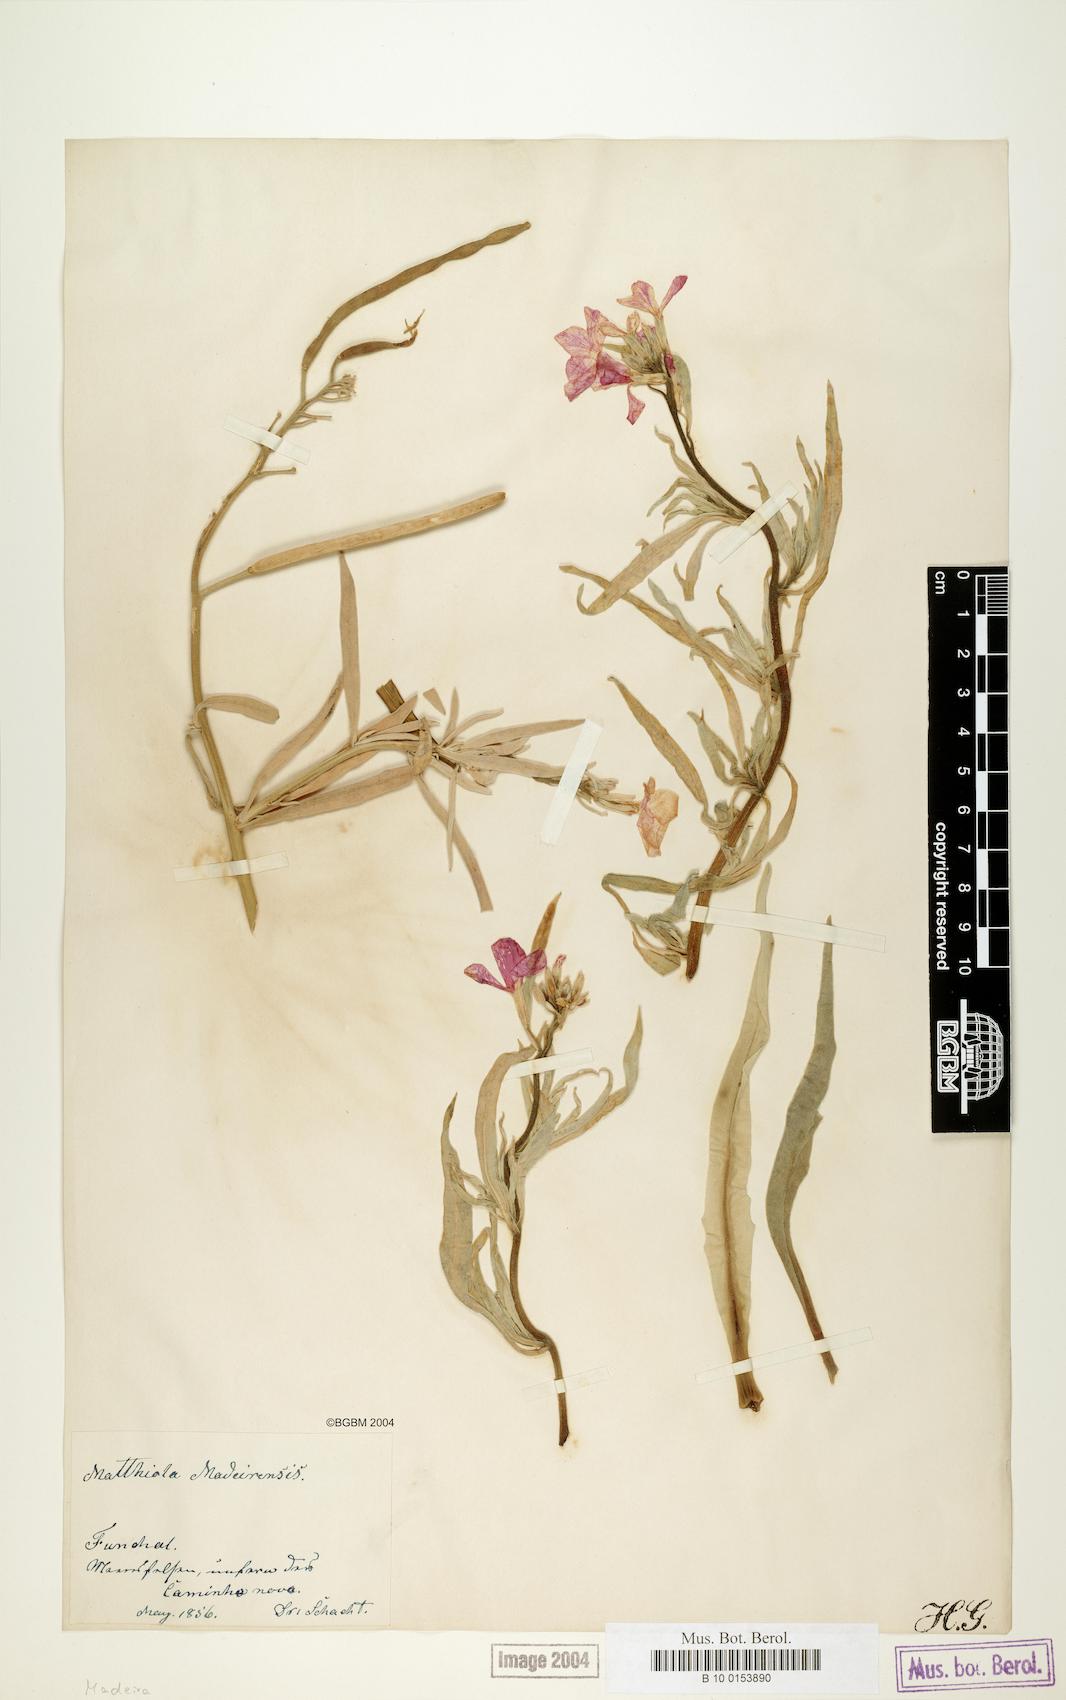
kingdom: Plantae
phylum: Tracheophyta
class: Magnoliopsida
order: Brassicales
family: Brassicaceae
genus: Matthiola
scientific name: Matthiola maderensis
